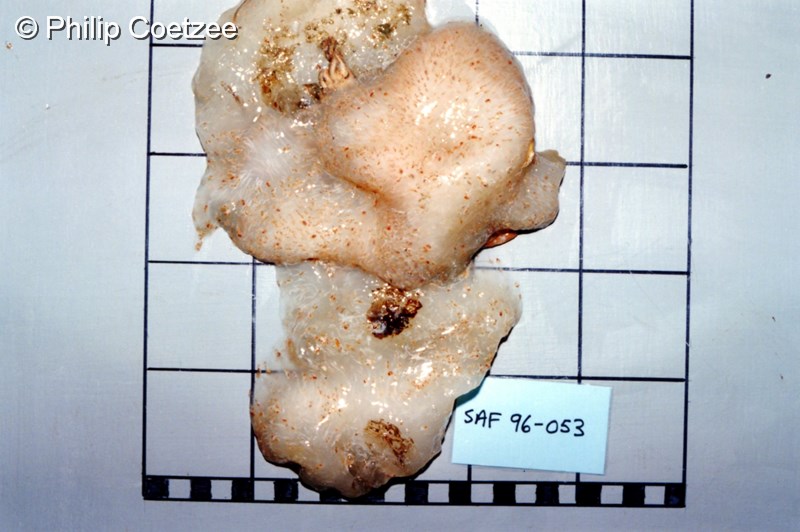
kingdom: Animalia
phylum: Chordata
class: Ascidiacea
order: Aplousobranchia
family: Pseudodistomidae
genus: Pseudodistoma
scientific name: Pseudodistoma
